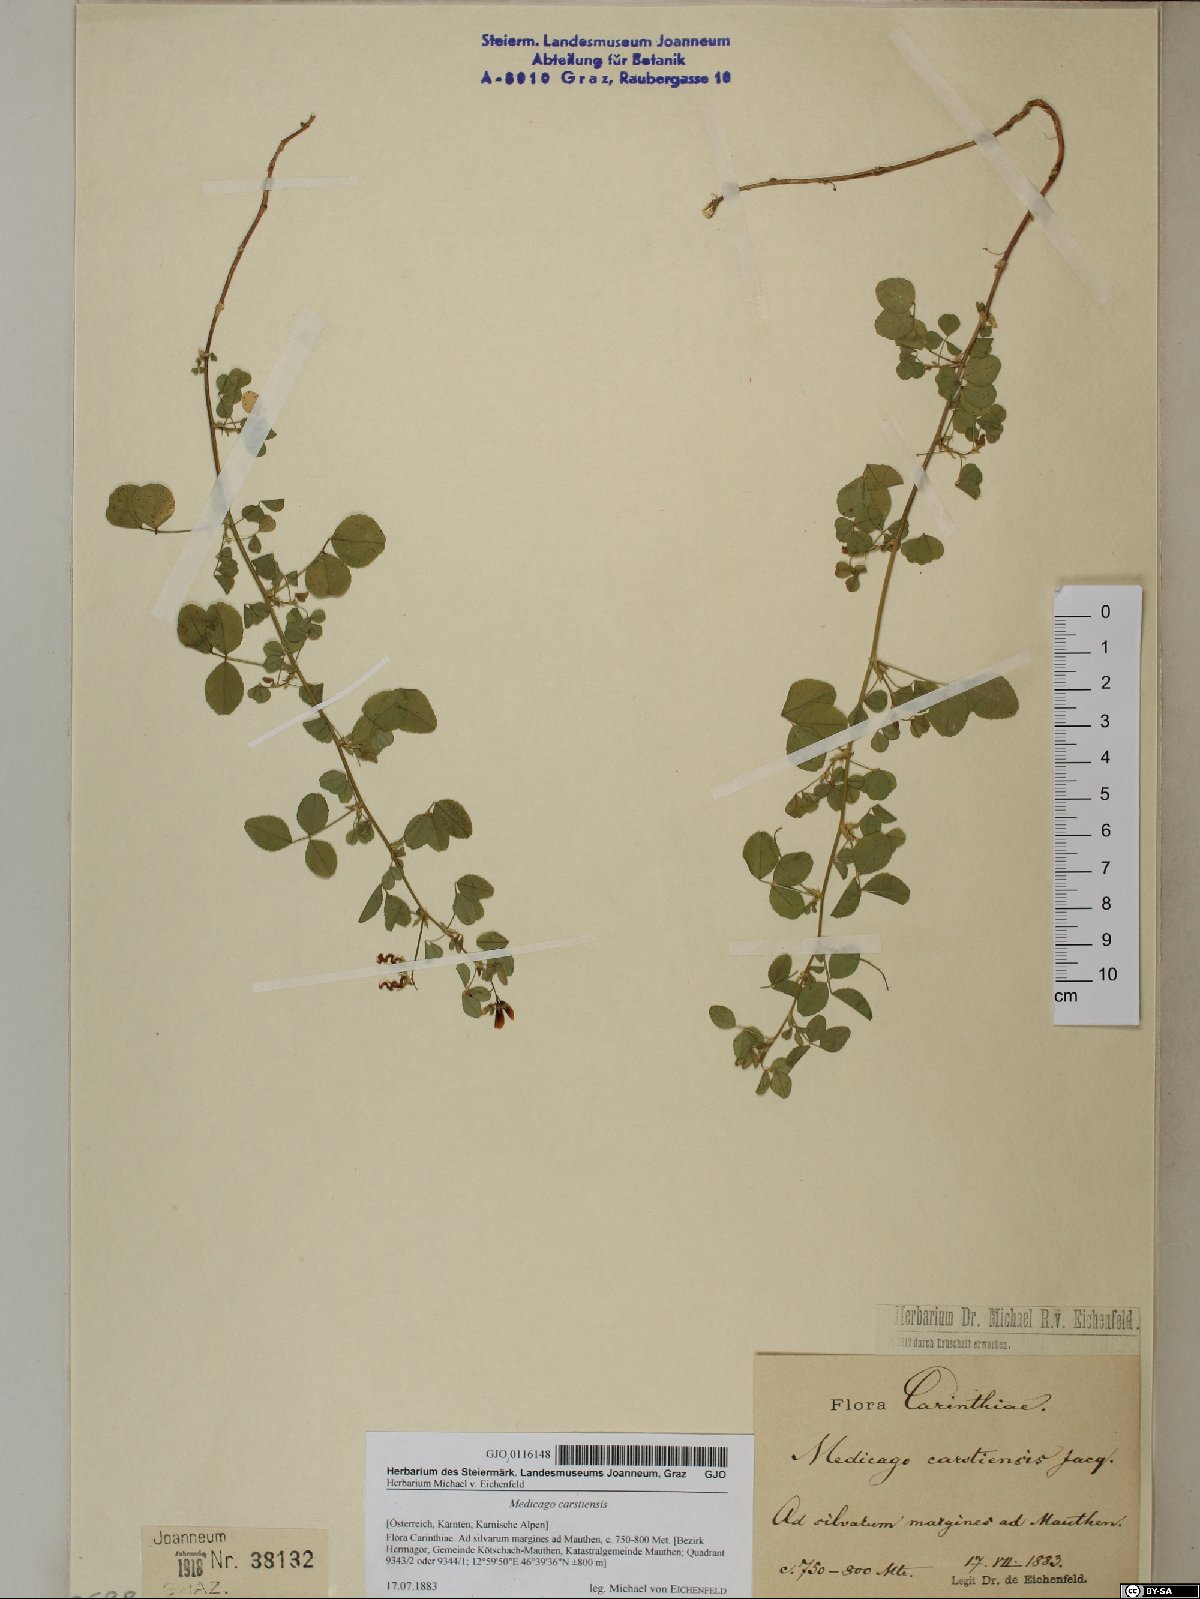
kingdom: Plantae
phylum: Tracheophyta
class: Magnoliopsida
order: Fabales
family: Fabaceae
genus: Medicago
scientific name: Medicago carstiensis
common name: Creeping-rooted medic
